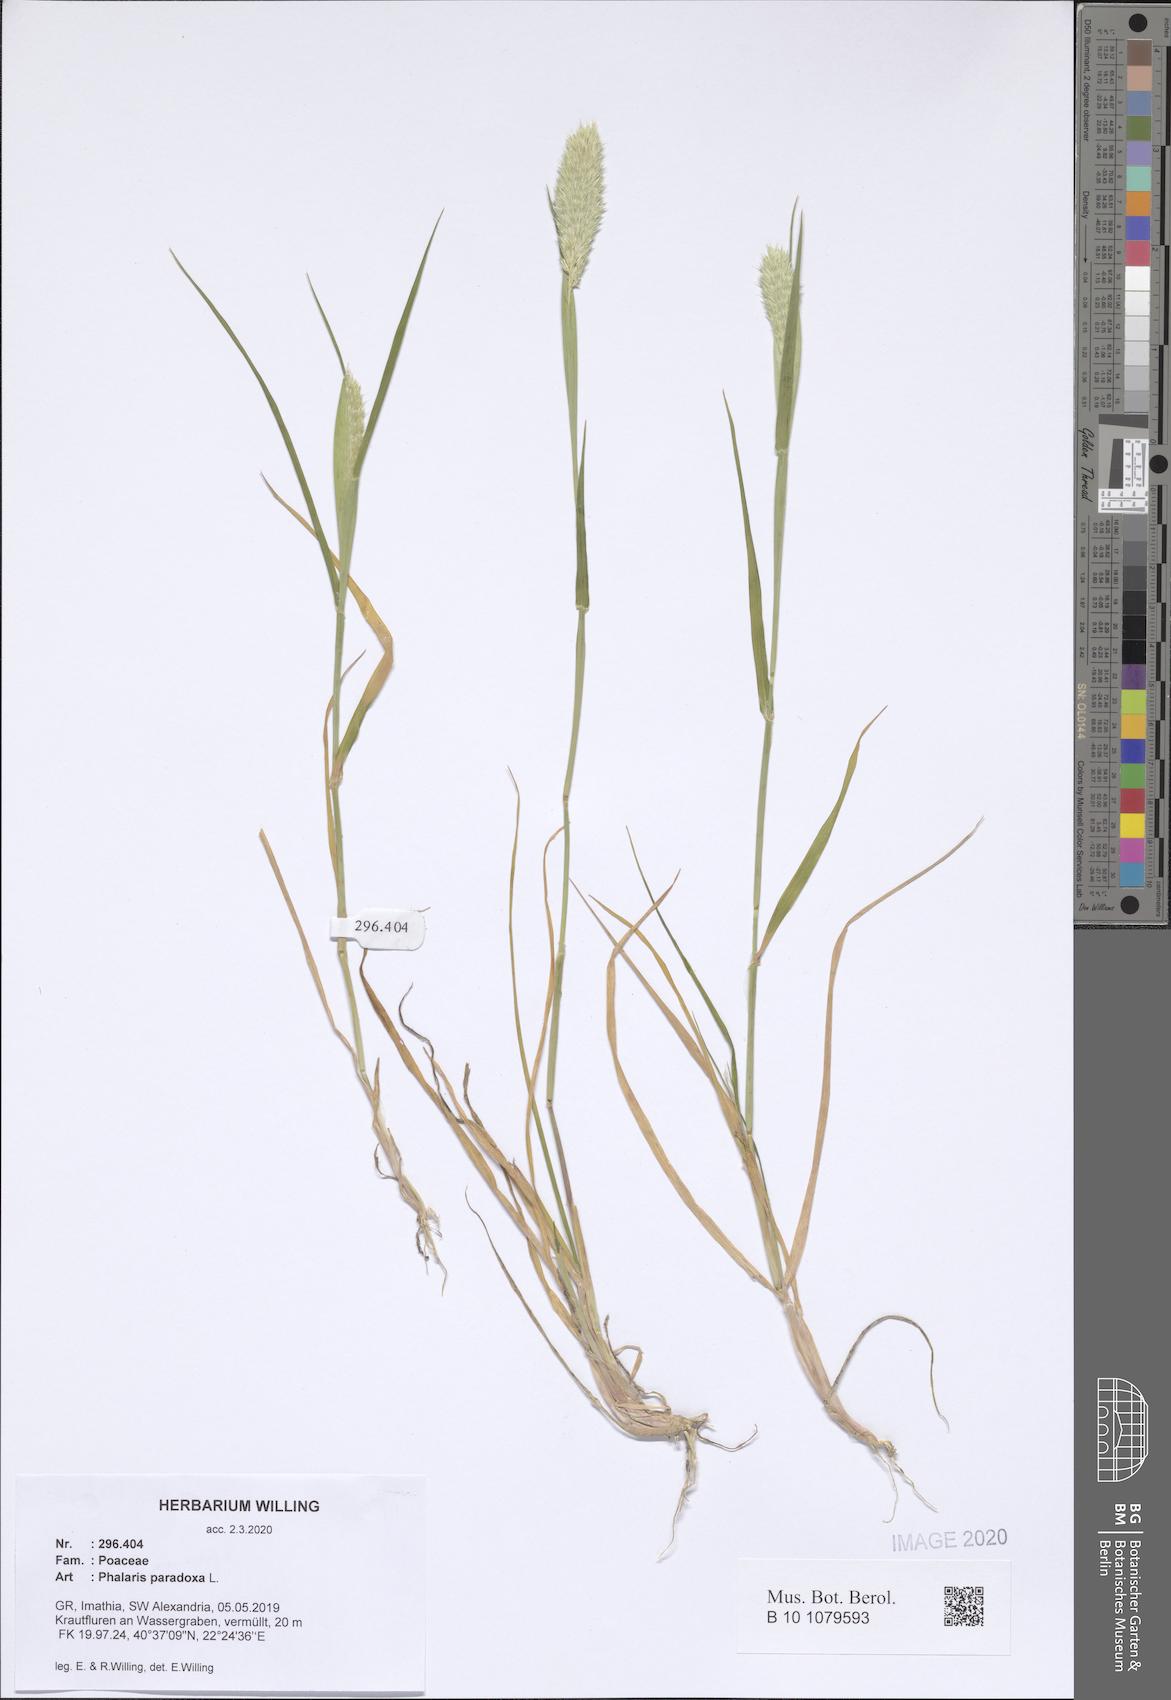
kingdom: Plantae
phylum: Tracheophyta
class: Liliopsida
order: Poales
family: Poaceae
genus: Phalaris
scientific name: Phalaris paradoxa
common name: Awned canary-grass
